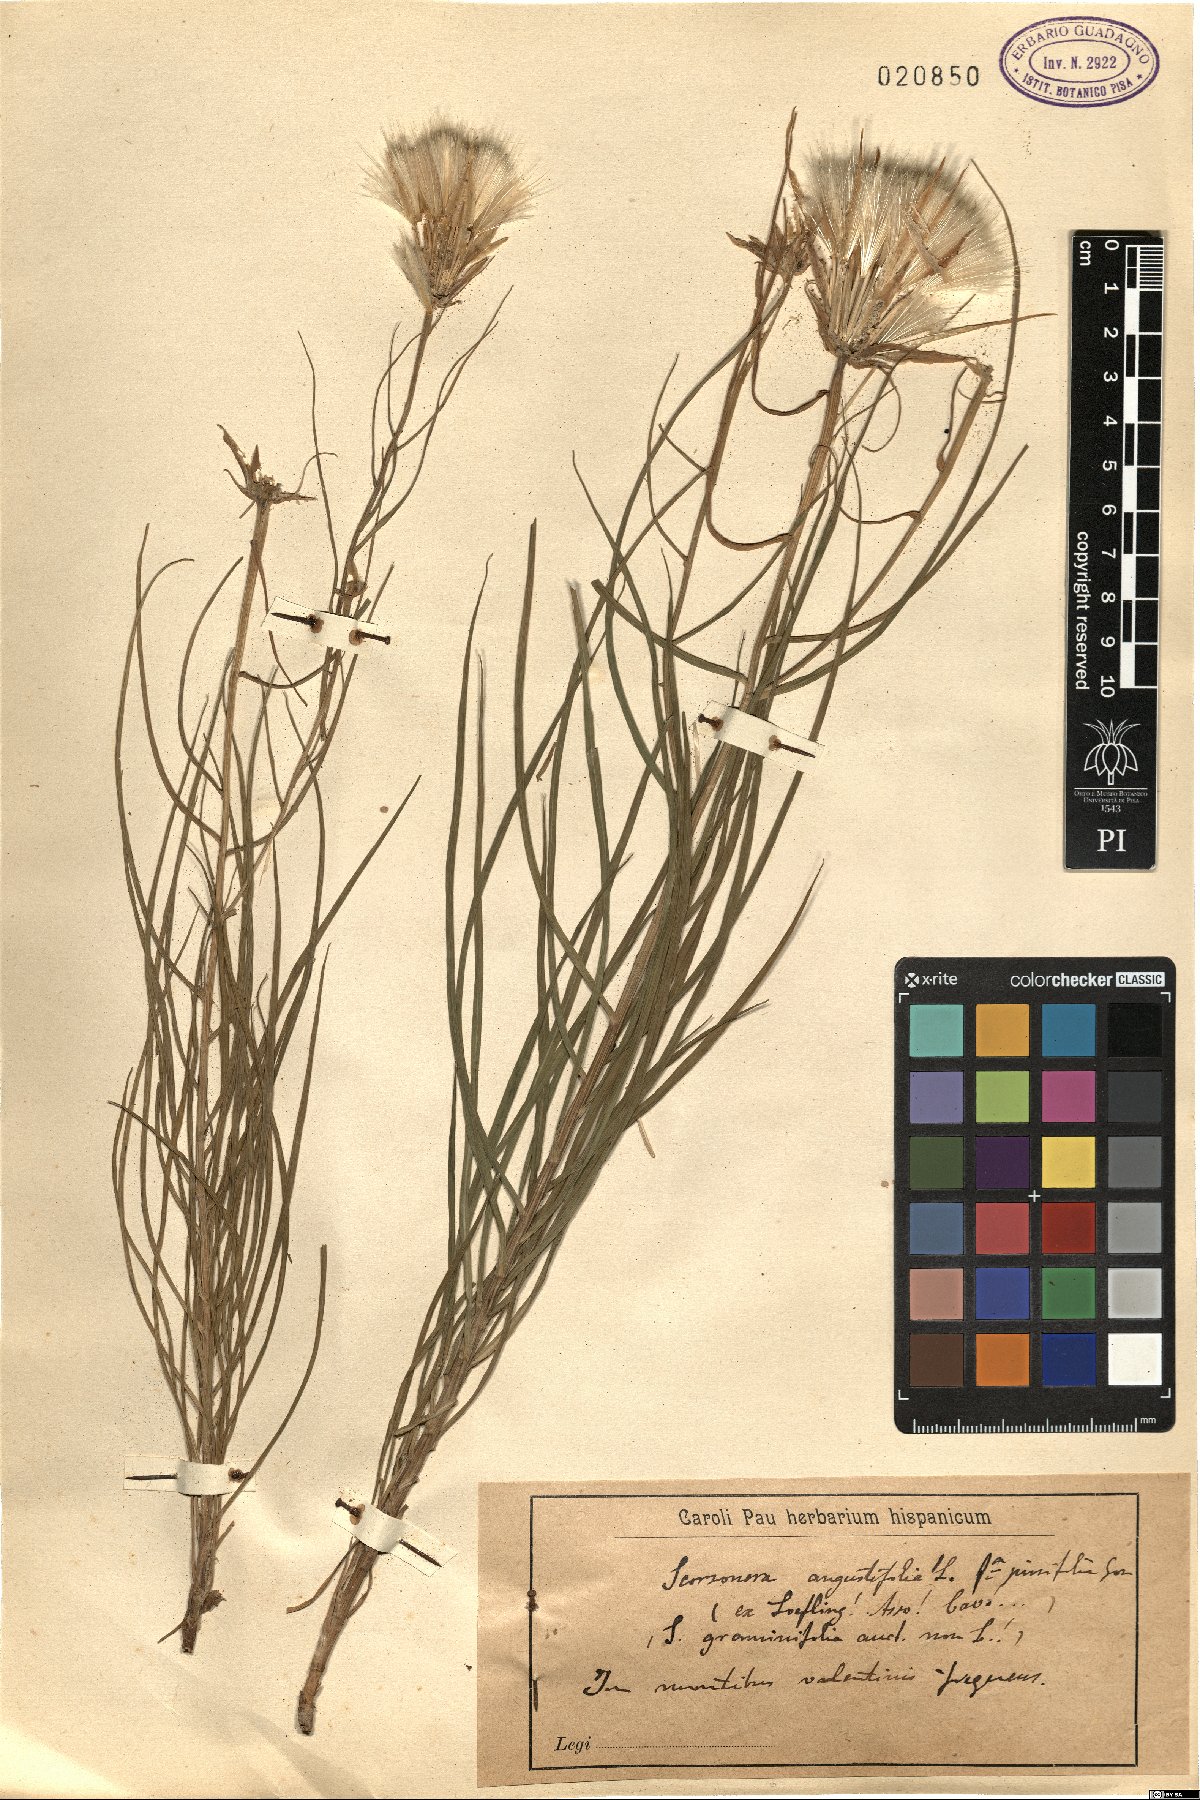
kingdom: Plantae
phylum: Tracheophyta
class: Magnoliopsida
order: Asterales
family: Asteraceae
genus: Scorzonera
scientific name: Scorzonera angustifolia
